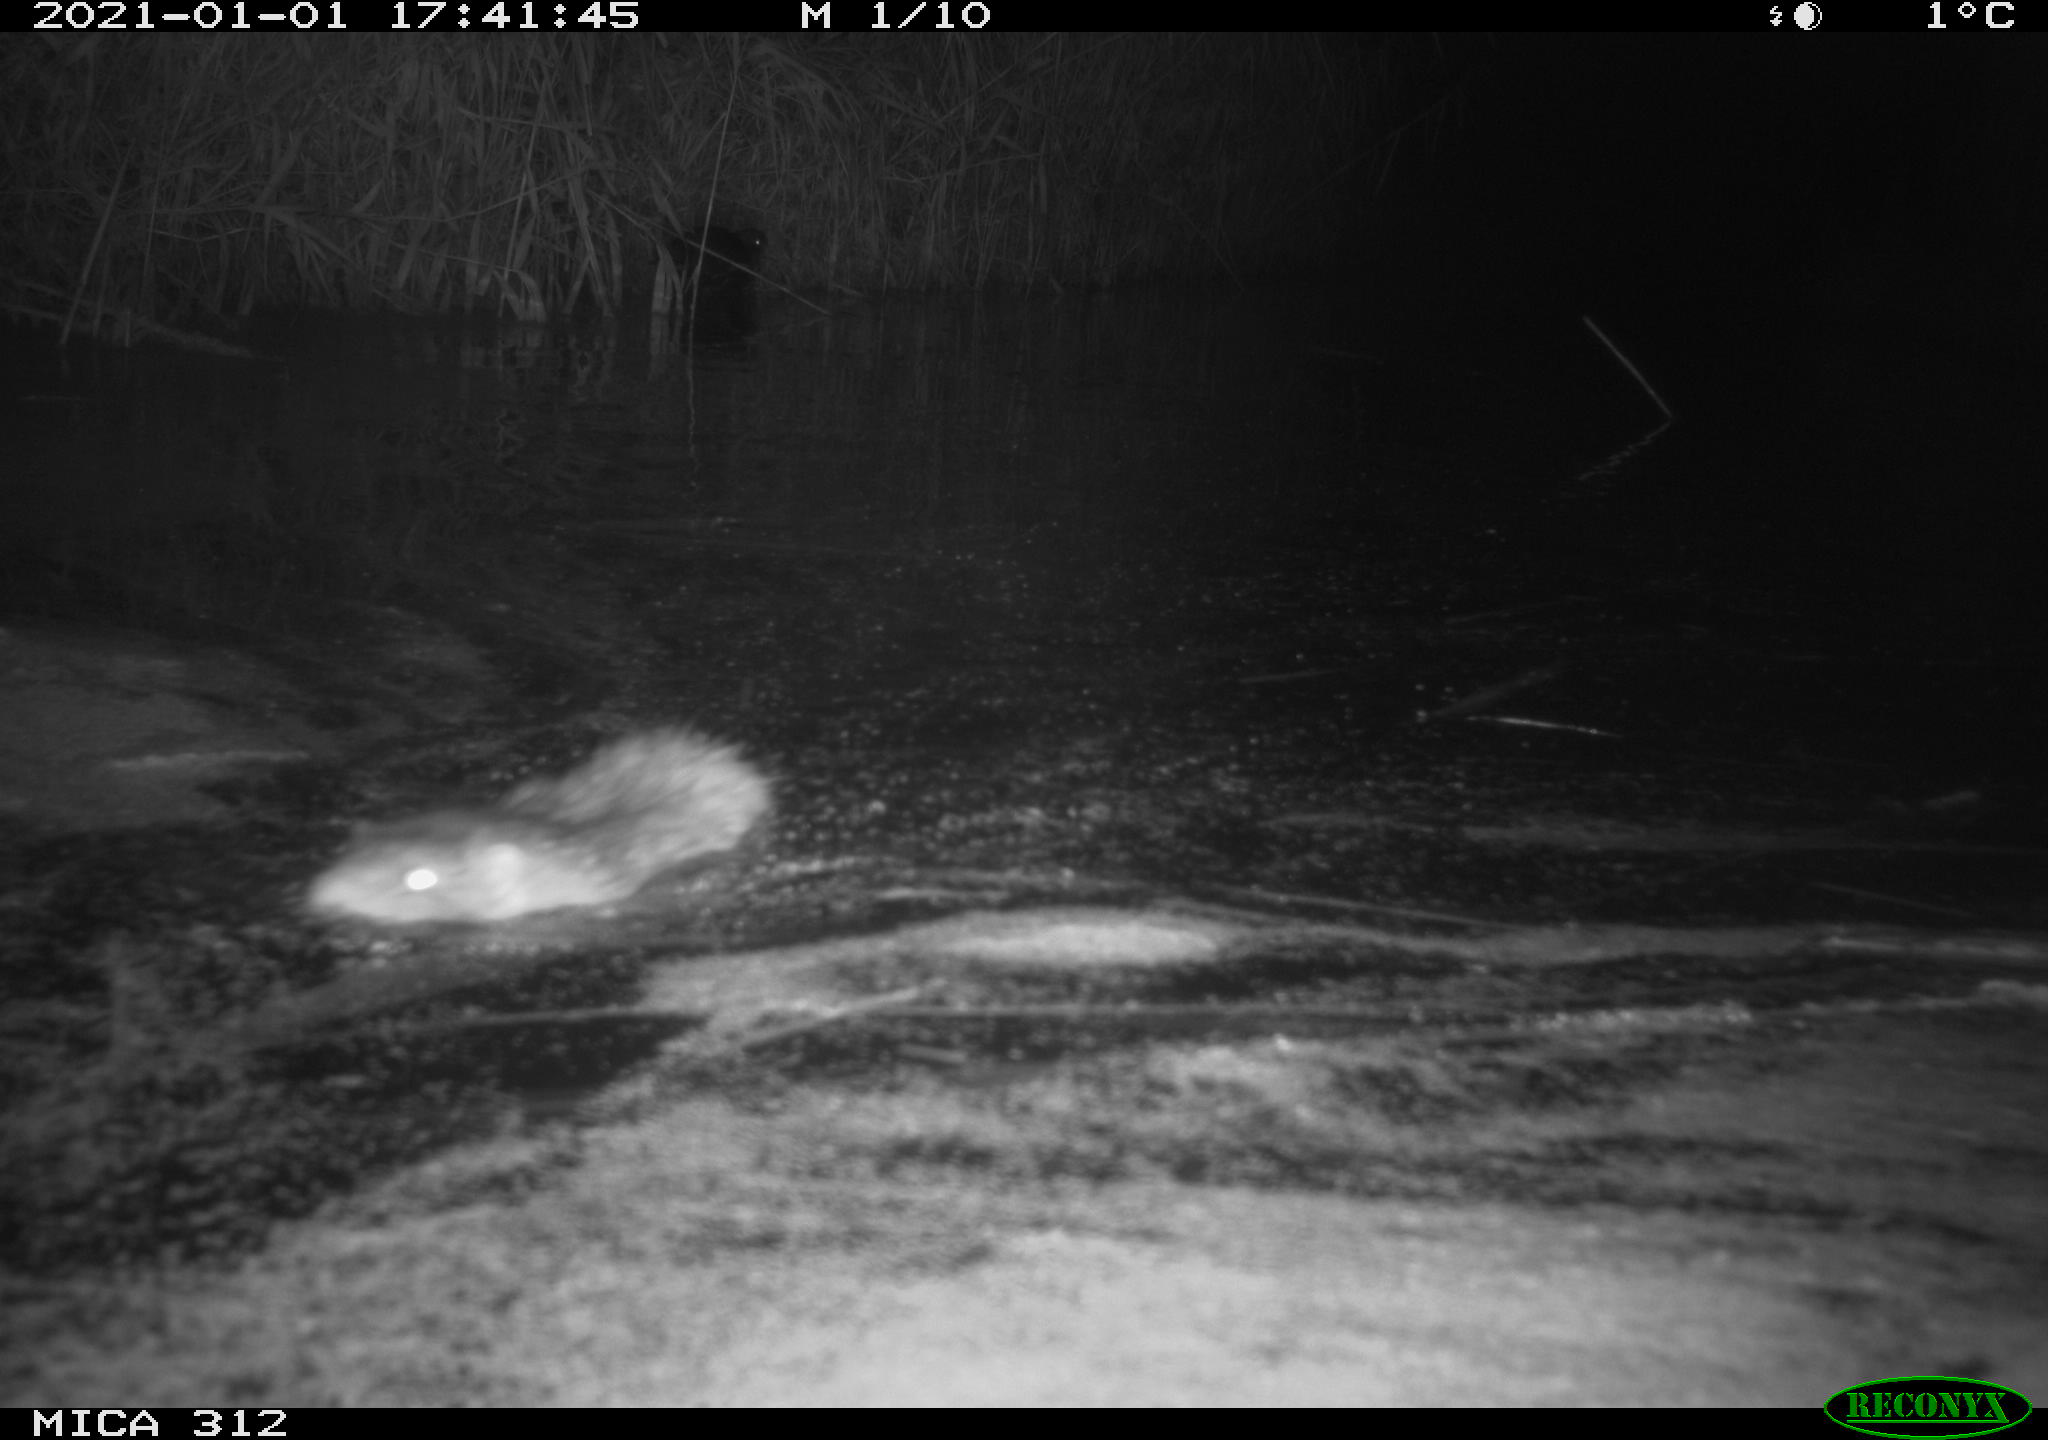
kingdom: Animalia
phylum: Chordata
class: Mammalia
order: Rodentia
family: Muridae
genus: Rattus
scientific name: Rattus norvegicus
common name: Brown rat
